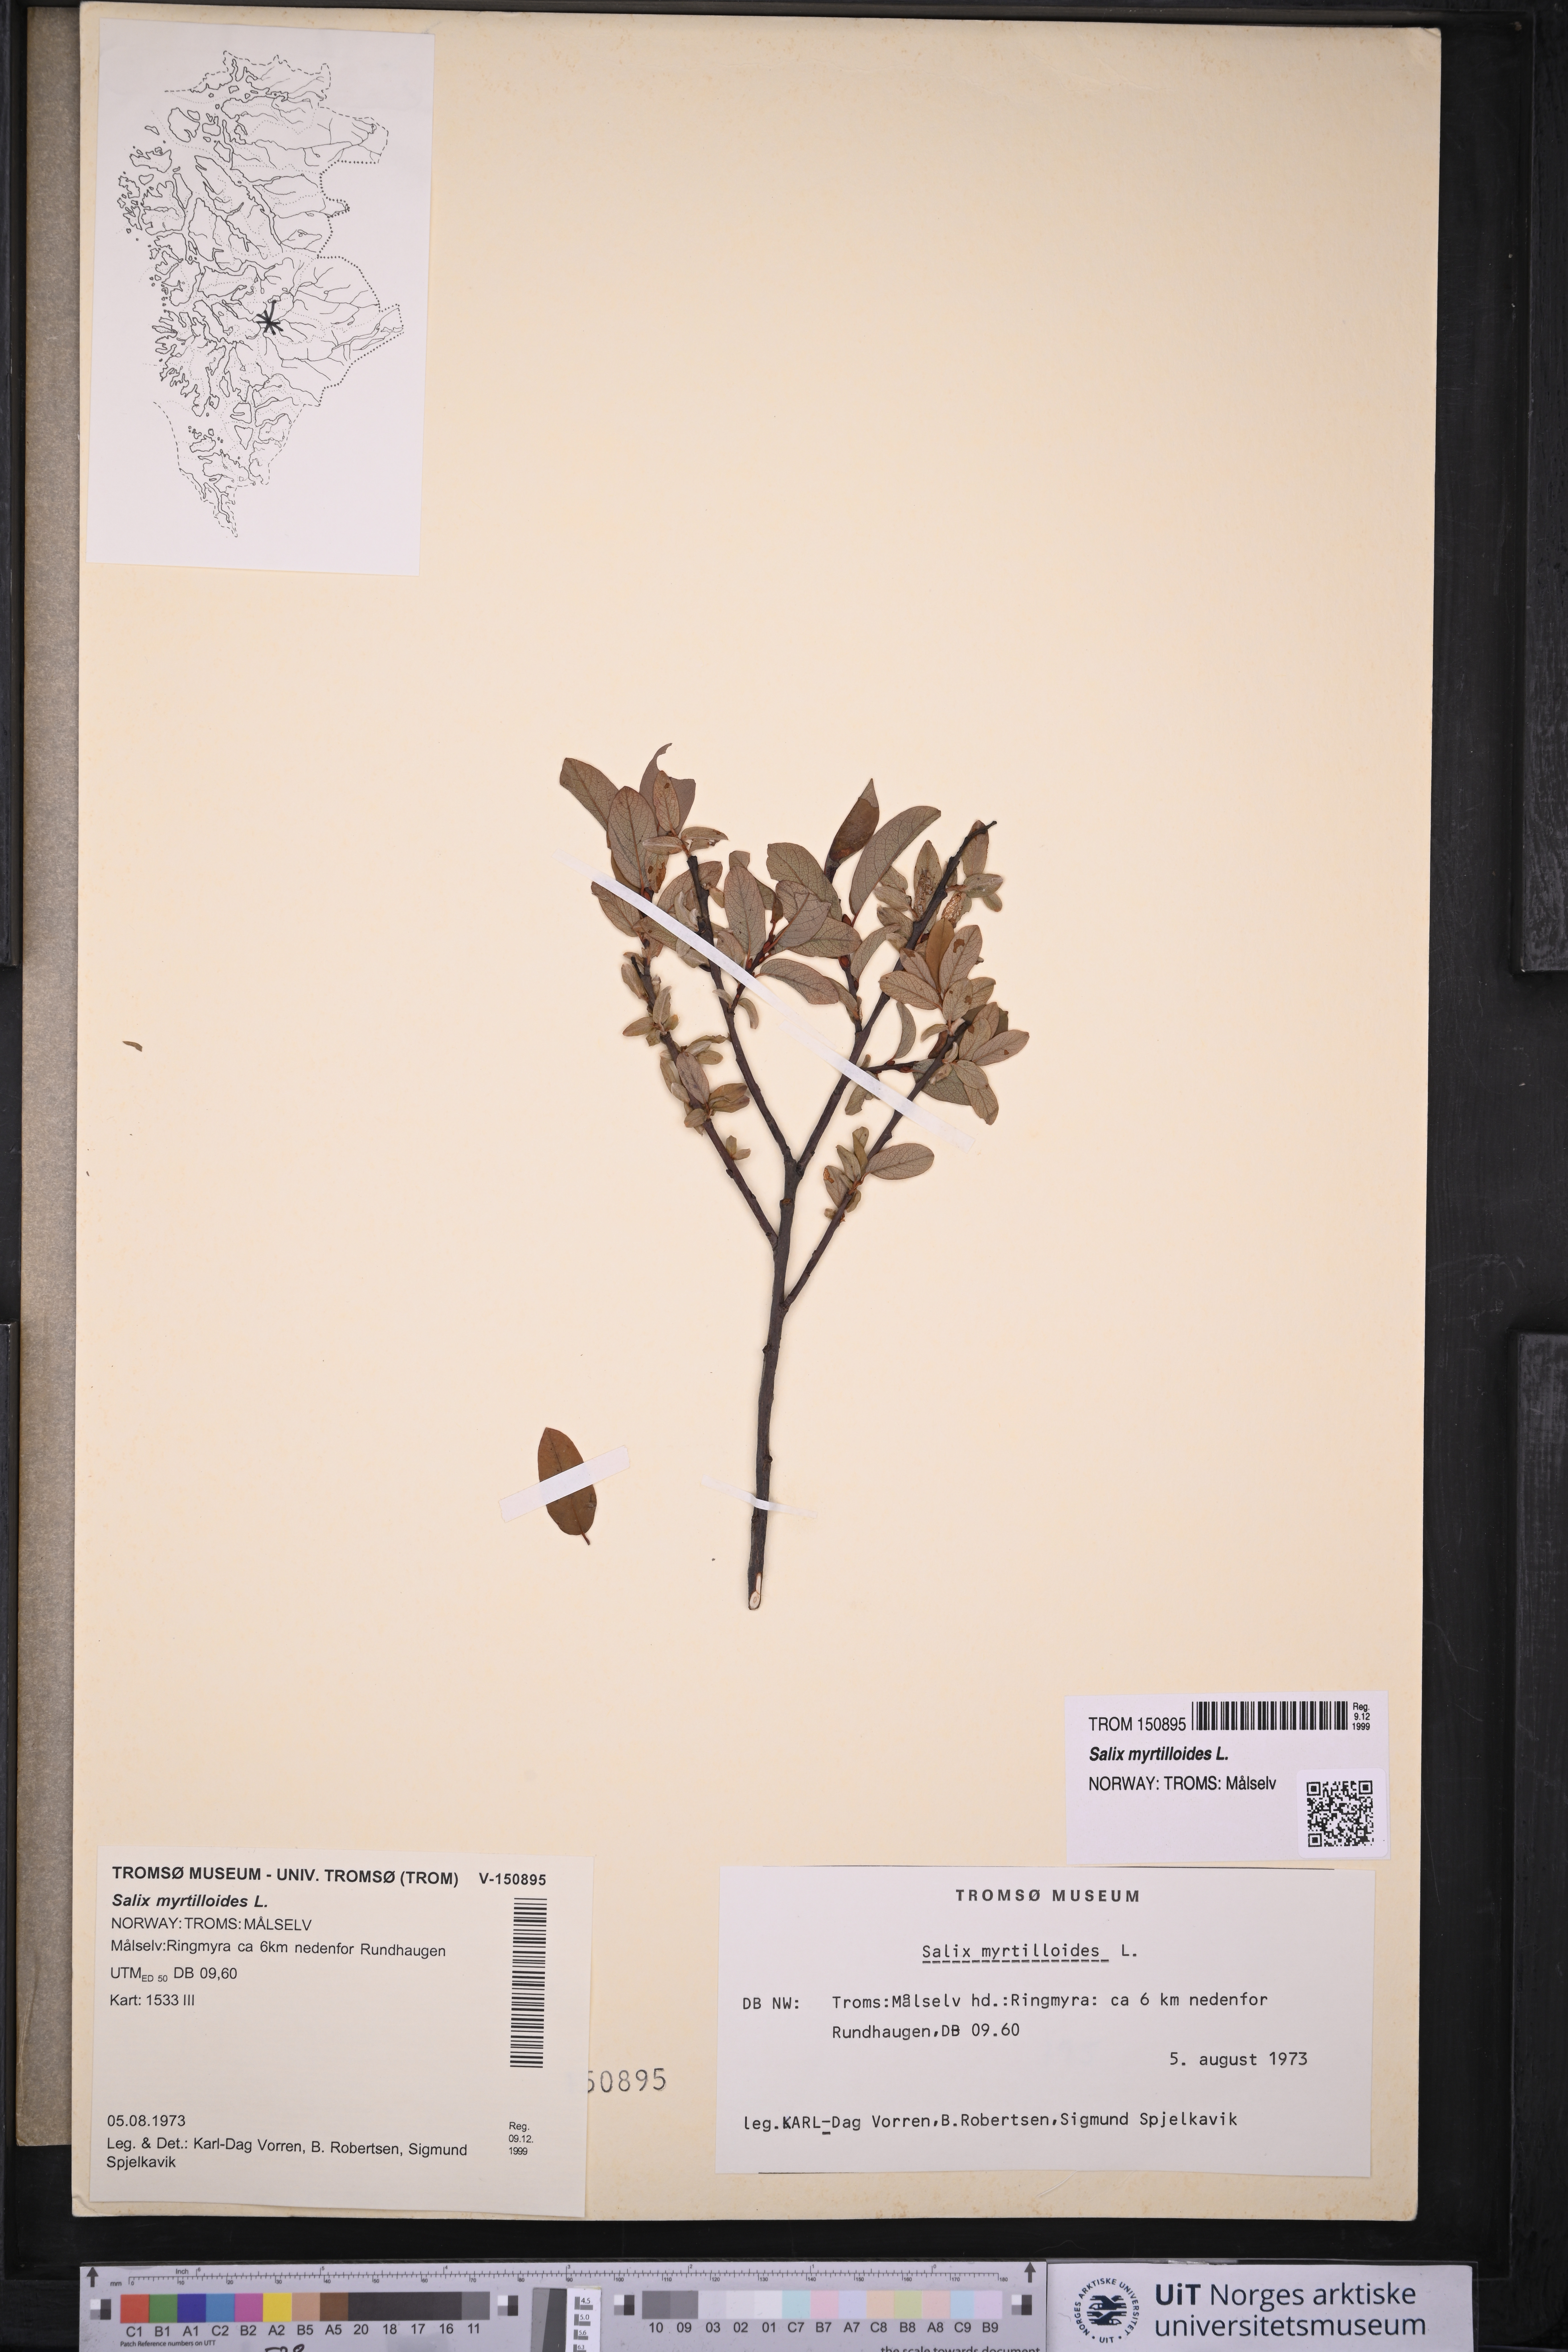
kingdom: Plantae
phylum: Tracheophyta
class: Magnoliopsida
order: Malpighiales
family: Salicaceae
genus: Salix
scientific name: Salix myrtilloides
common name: Myrtle-leaved willow
